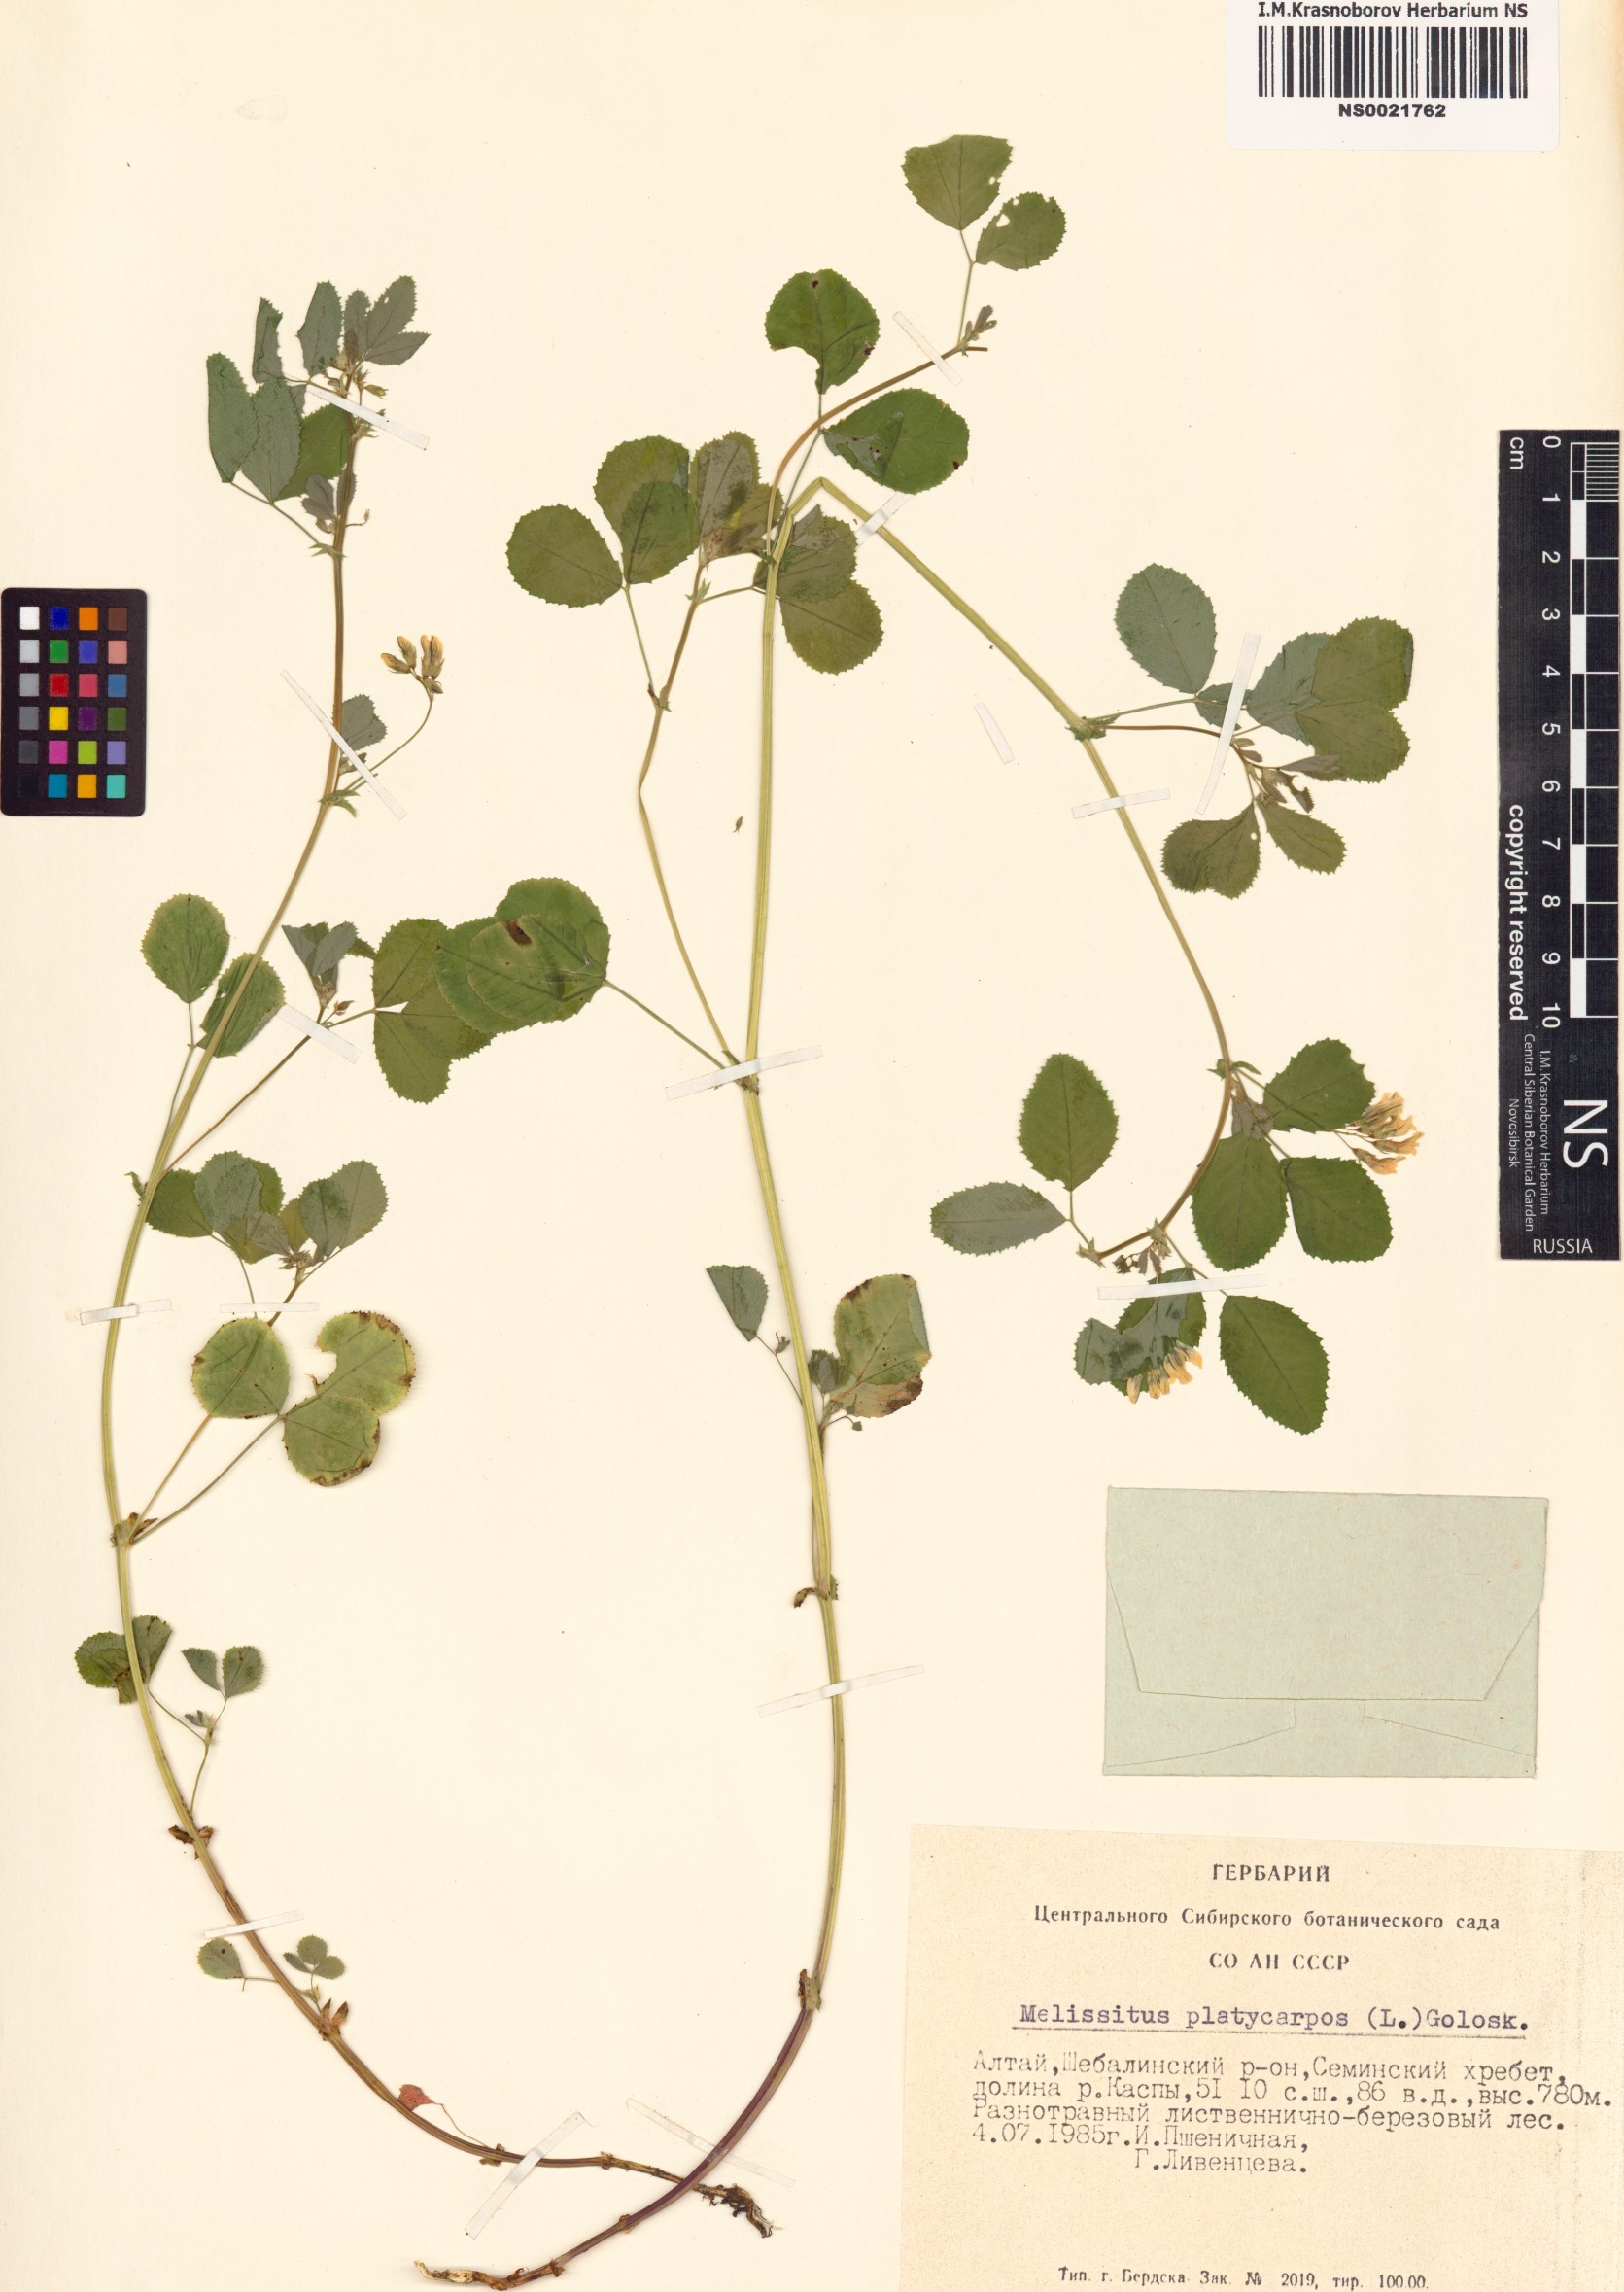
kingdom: Plantae
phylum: Tracheophyta
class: Magnoliopsida
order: Fabales
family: Fabaceae
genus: Medicago
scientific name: Medicago platycarpos
